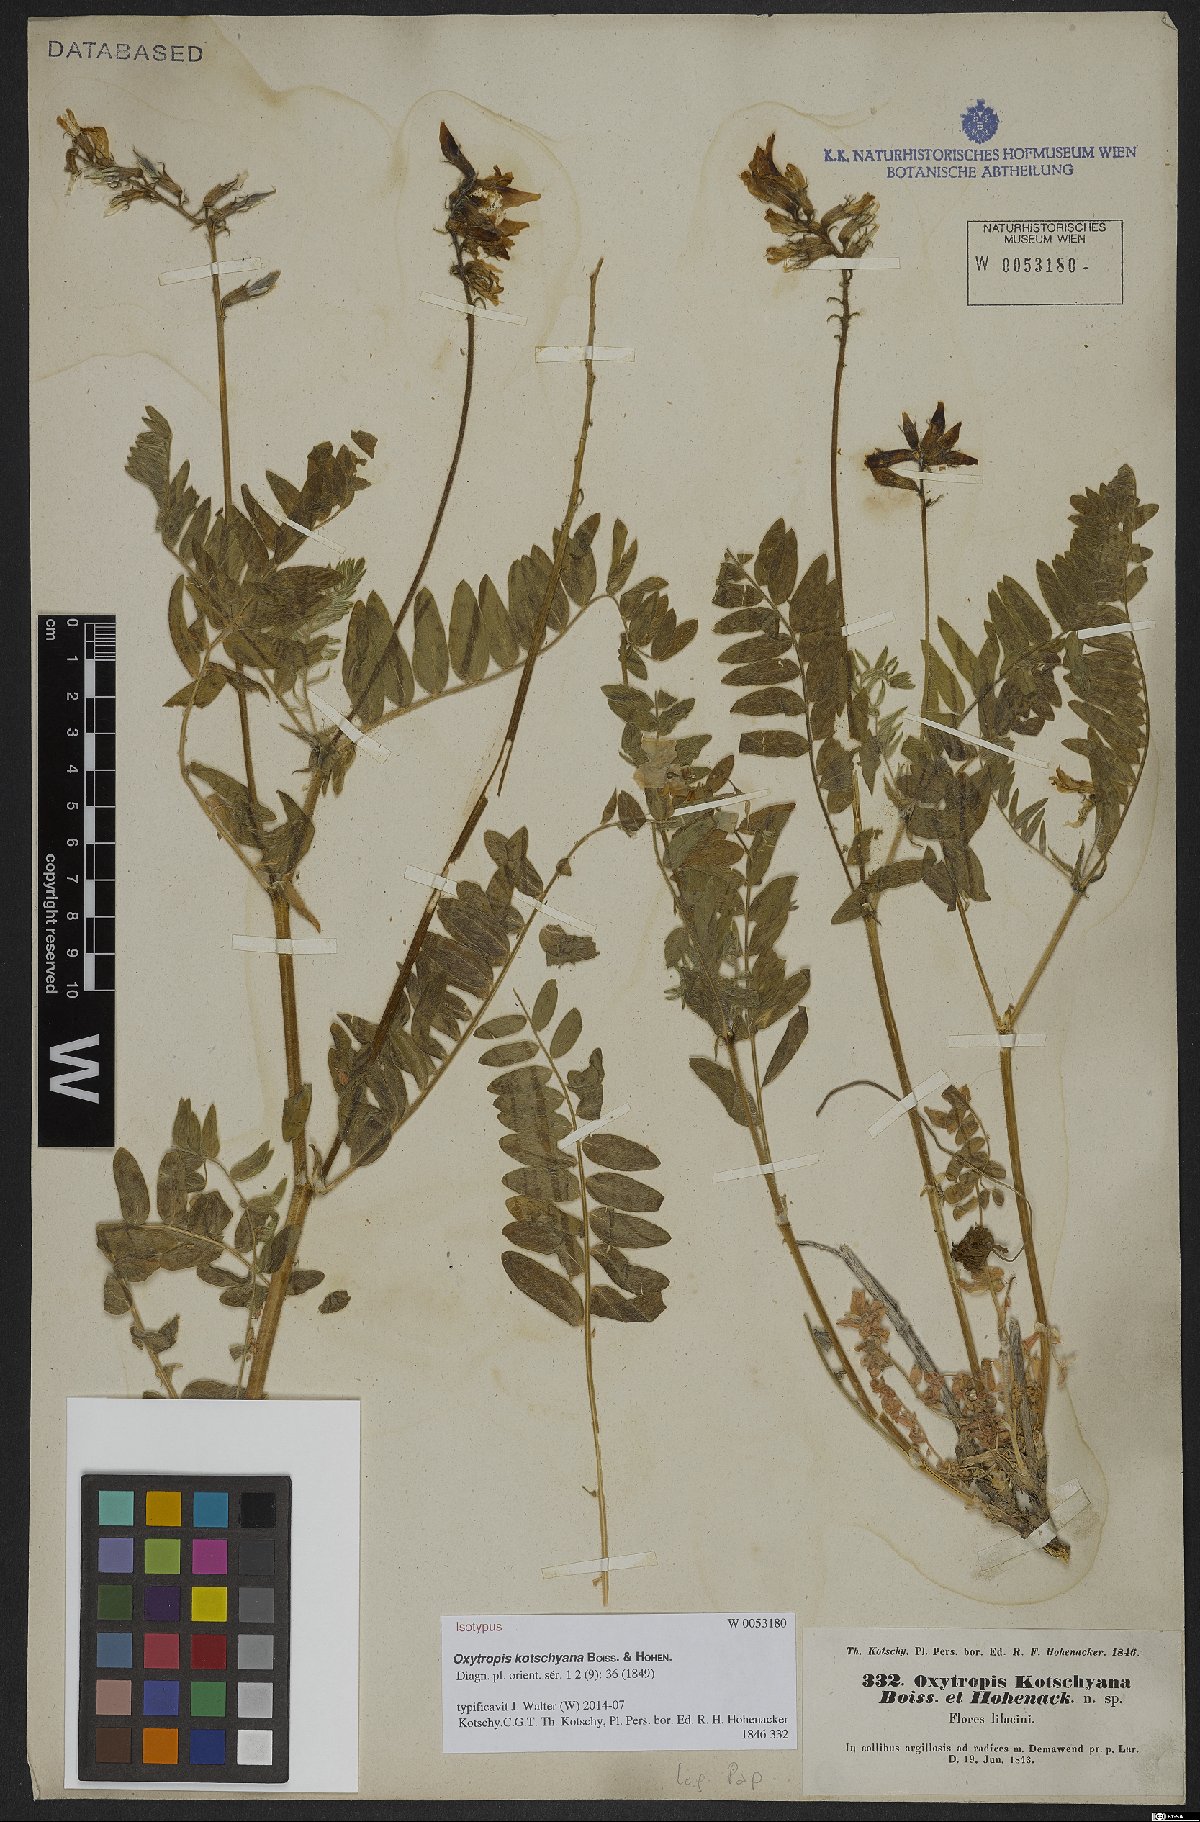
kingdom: Plantae
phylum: Tracheophyta
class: Magnoliopsida
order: Fabales
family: Fabaceae
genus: Oxytropis
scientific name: Oxytropis kotschyana
